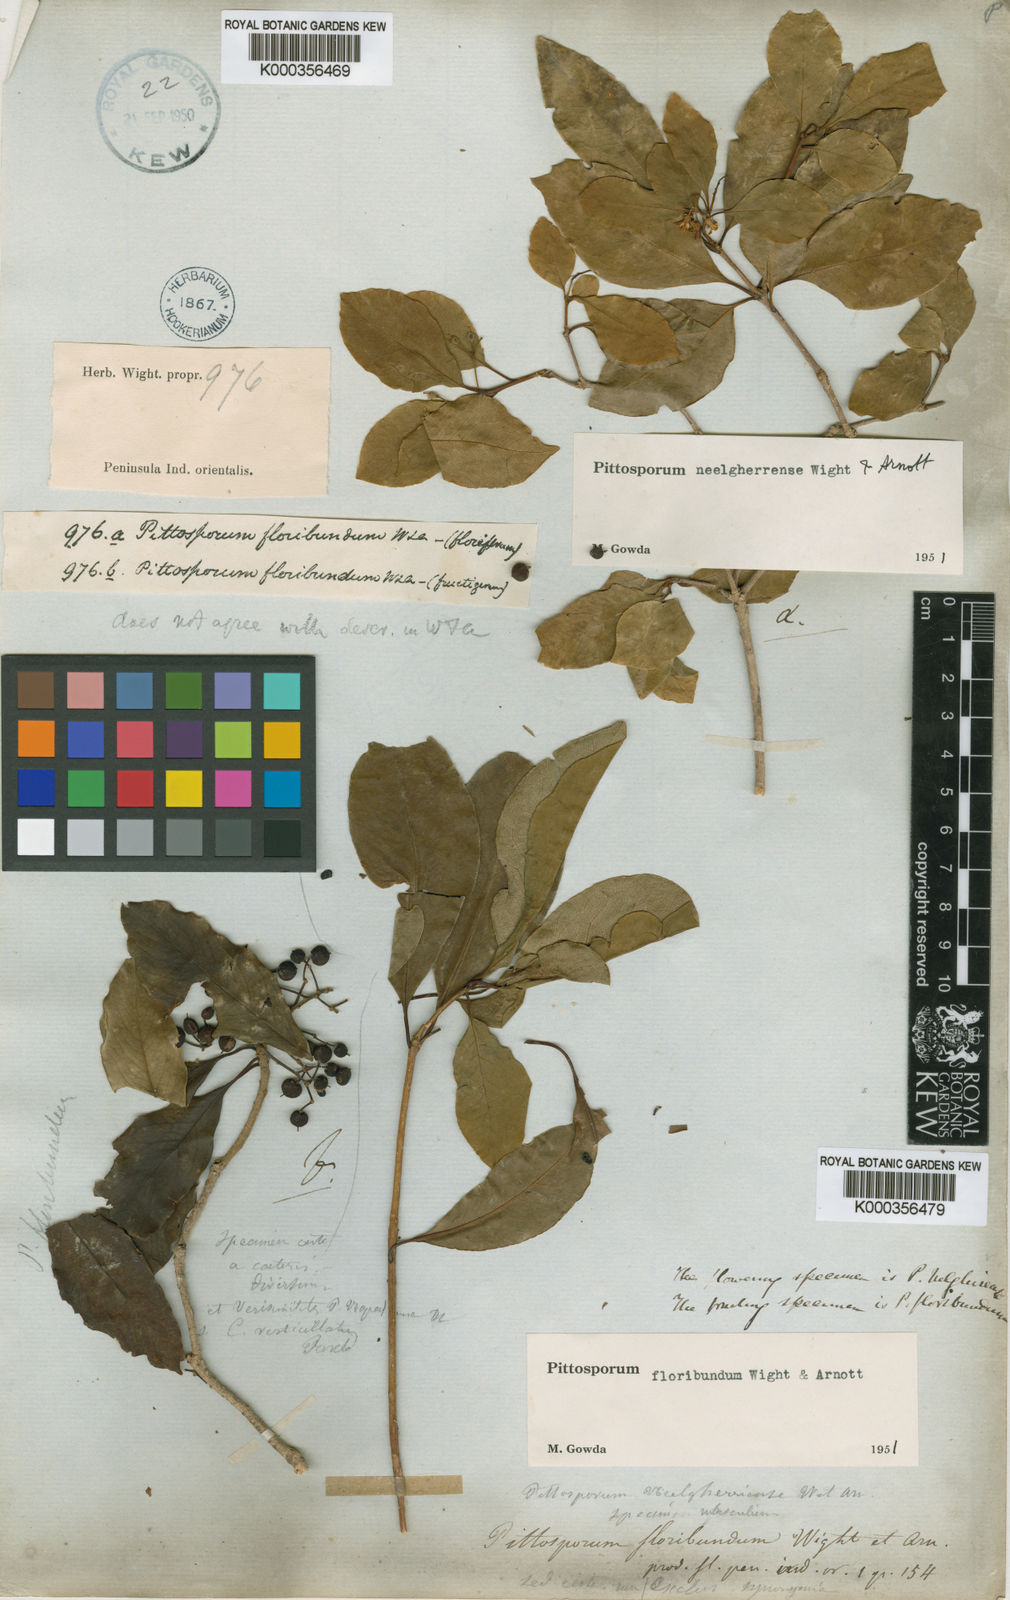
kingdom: Plantae
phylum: Tracheophyta
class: Magnoliopsida
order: Apiales
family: Pittosporaceae
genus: Pittosporum
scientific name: Pittosporum densiflorum
